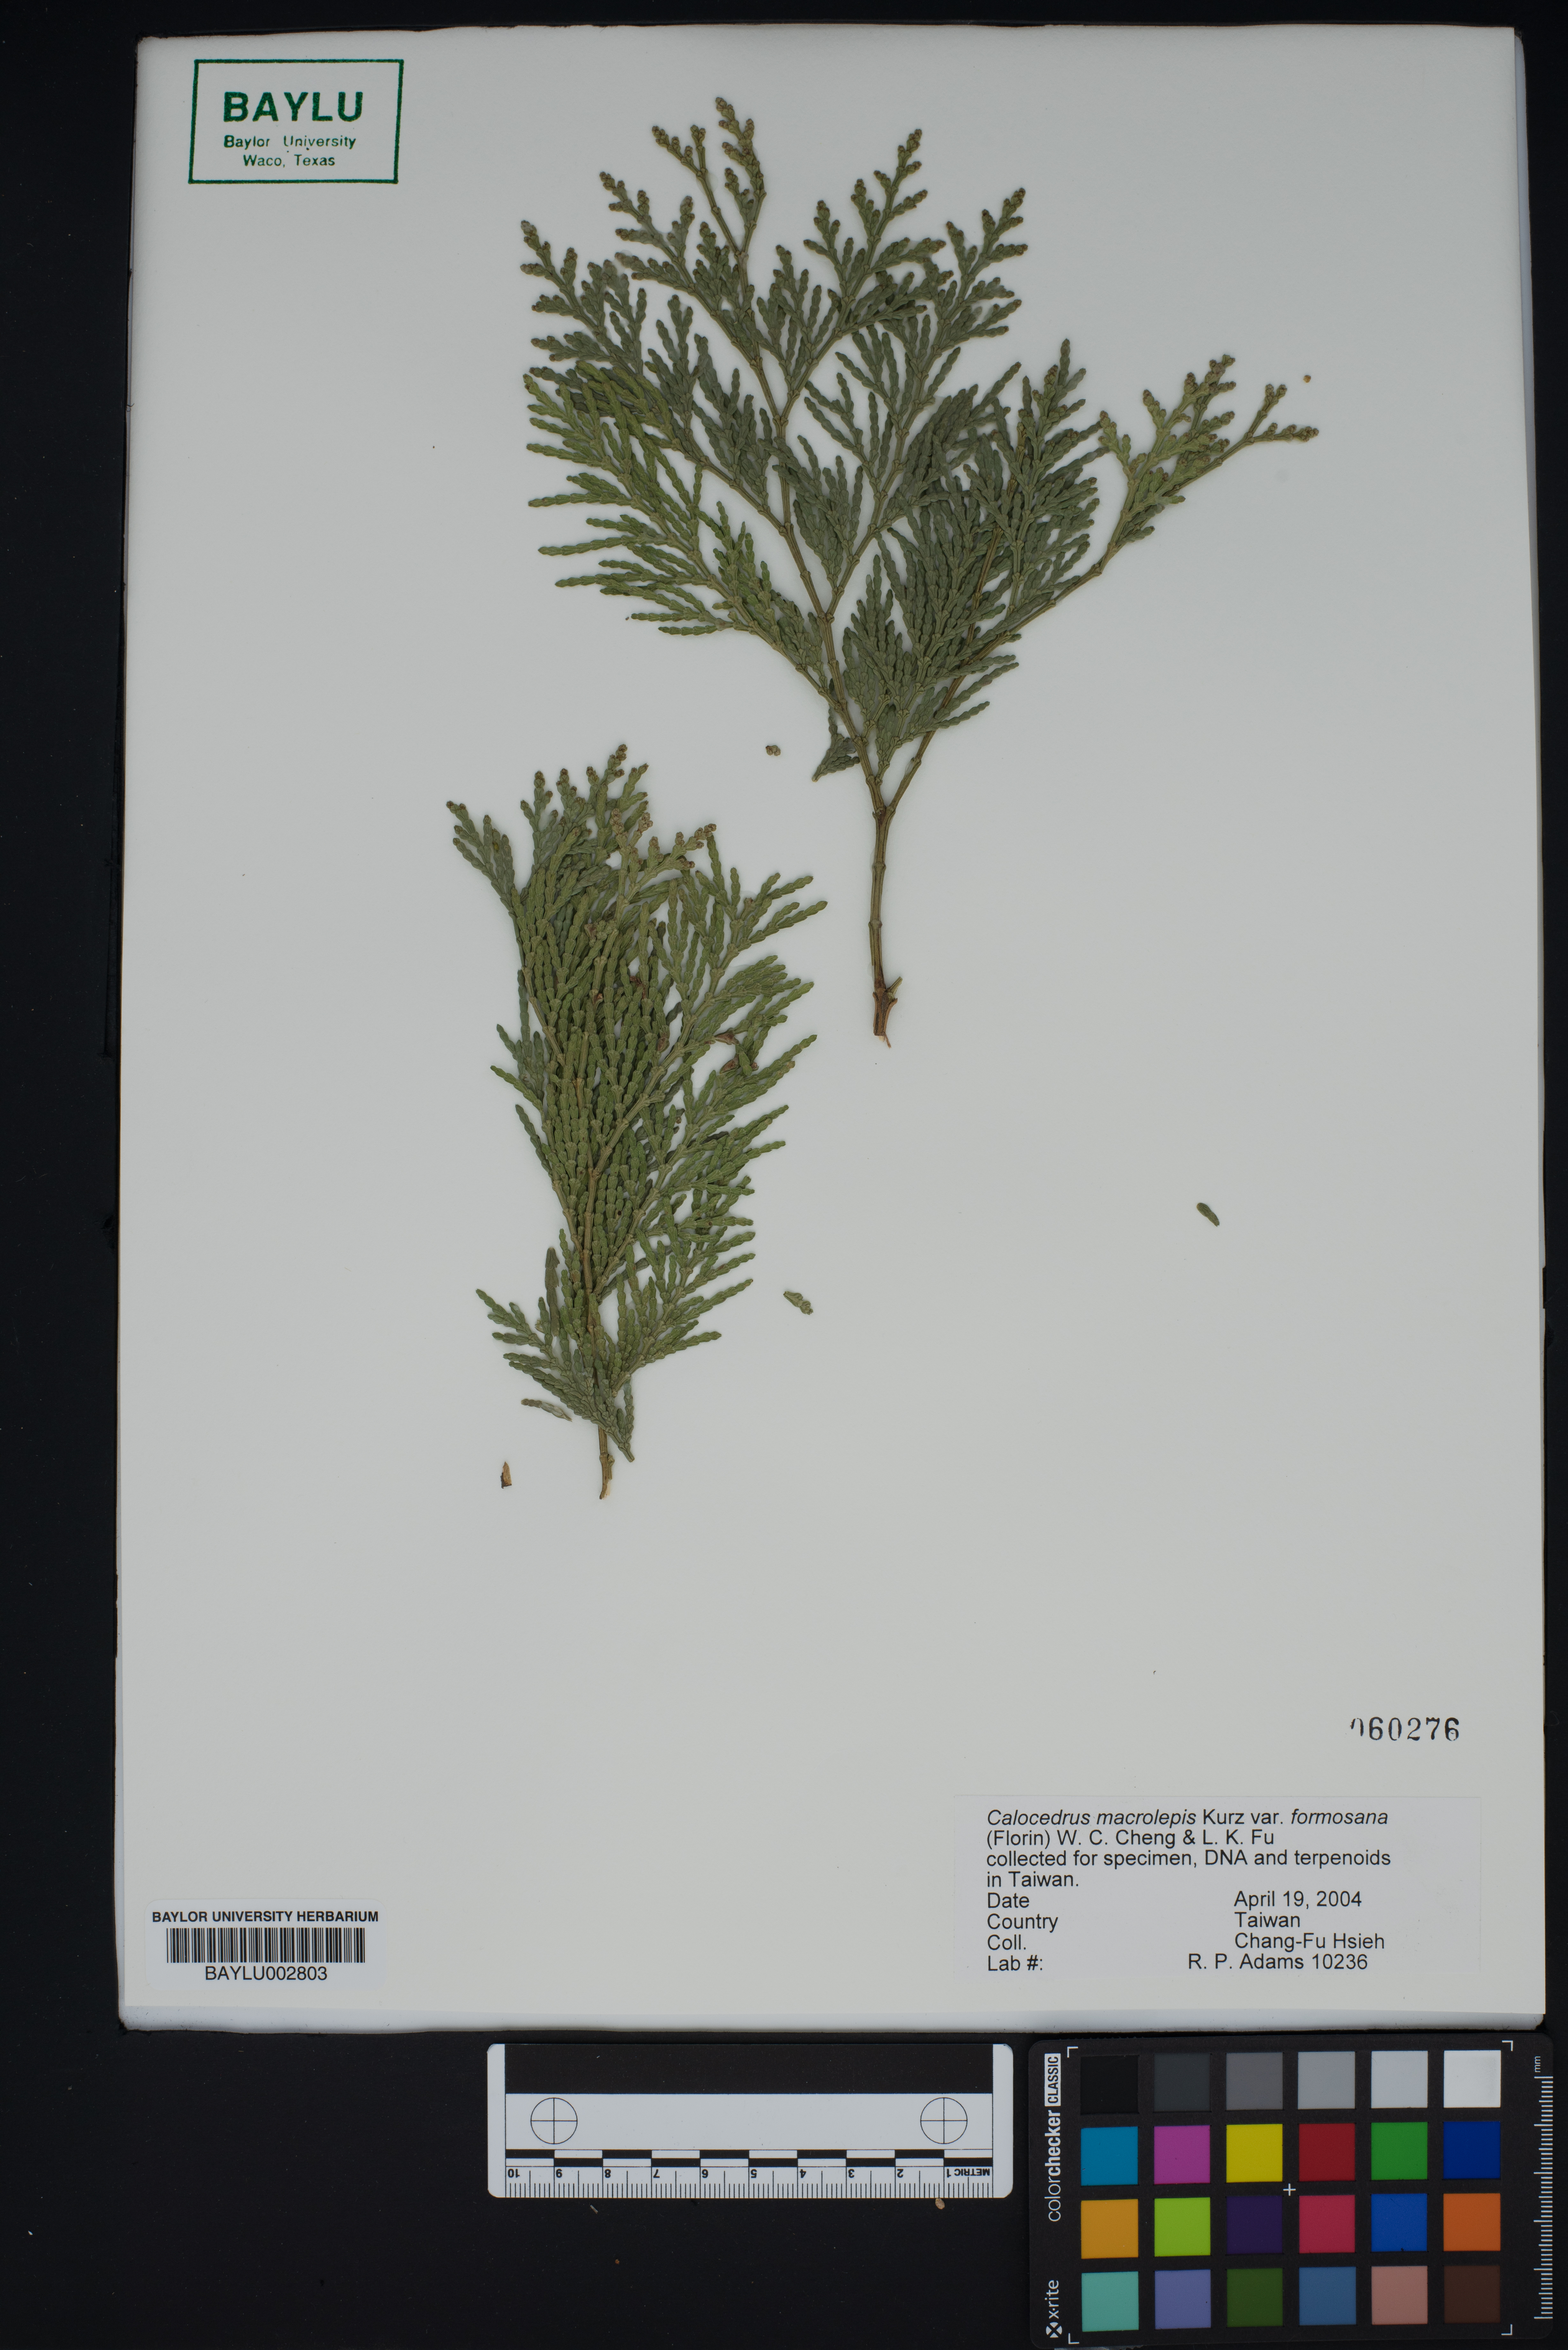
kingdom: Plantae
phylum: Tracheophyta
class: Pinopsida
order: Pinales
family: Cupressaceae
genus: Calocedrus
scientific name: Calocedrus formosana
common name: Taiwan incense-cedar
